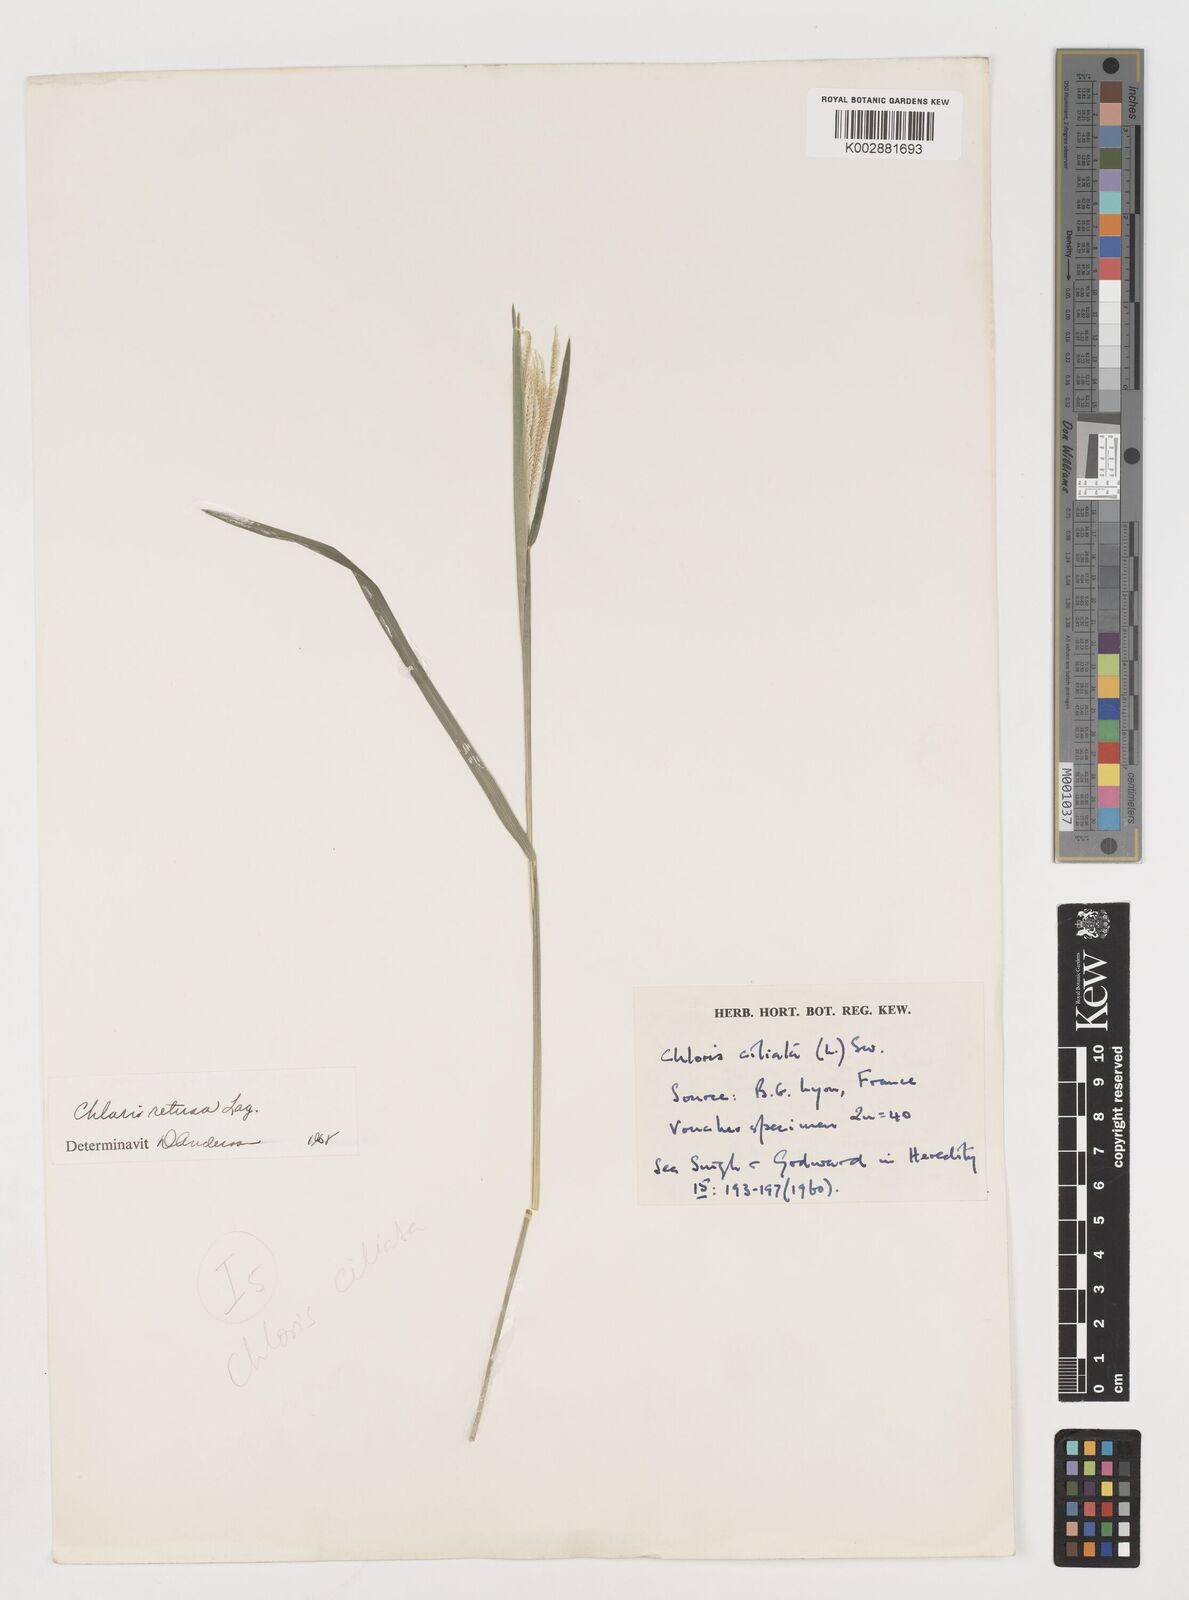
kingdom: Plantae
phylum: Tracheophyta
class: Liliopsida
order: Poales
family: Poaceae
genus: Stapfochloa
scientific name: Stapfochloa ciliata
